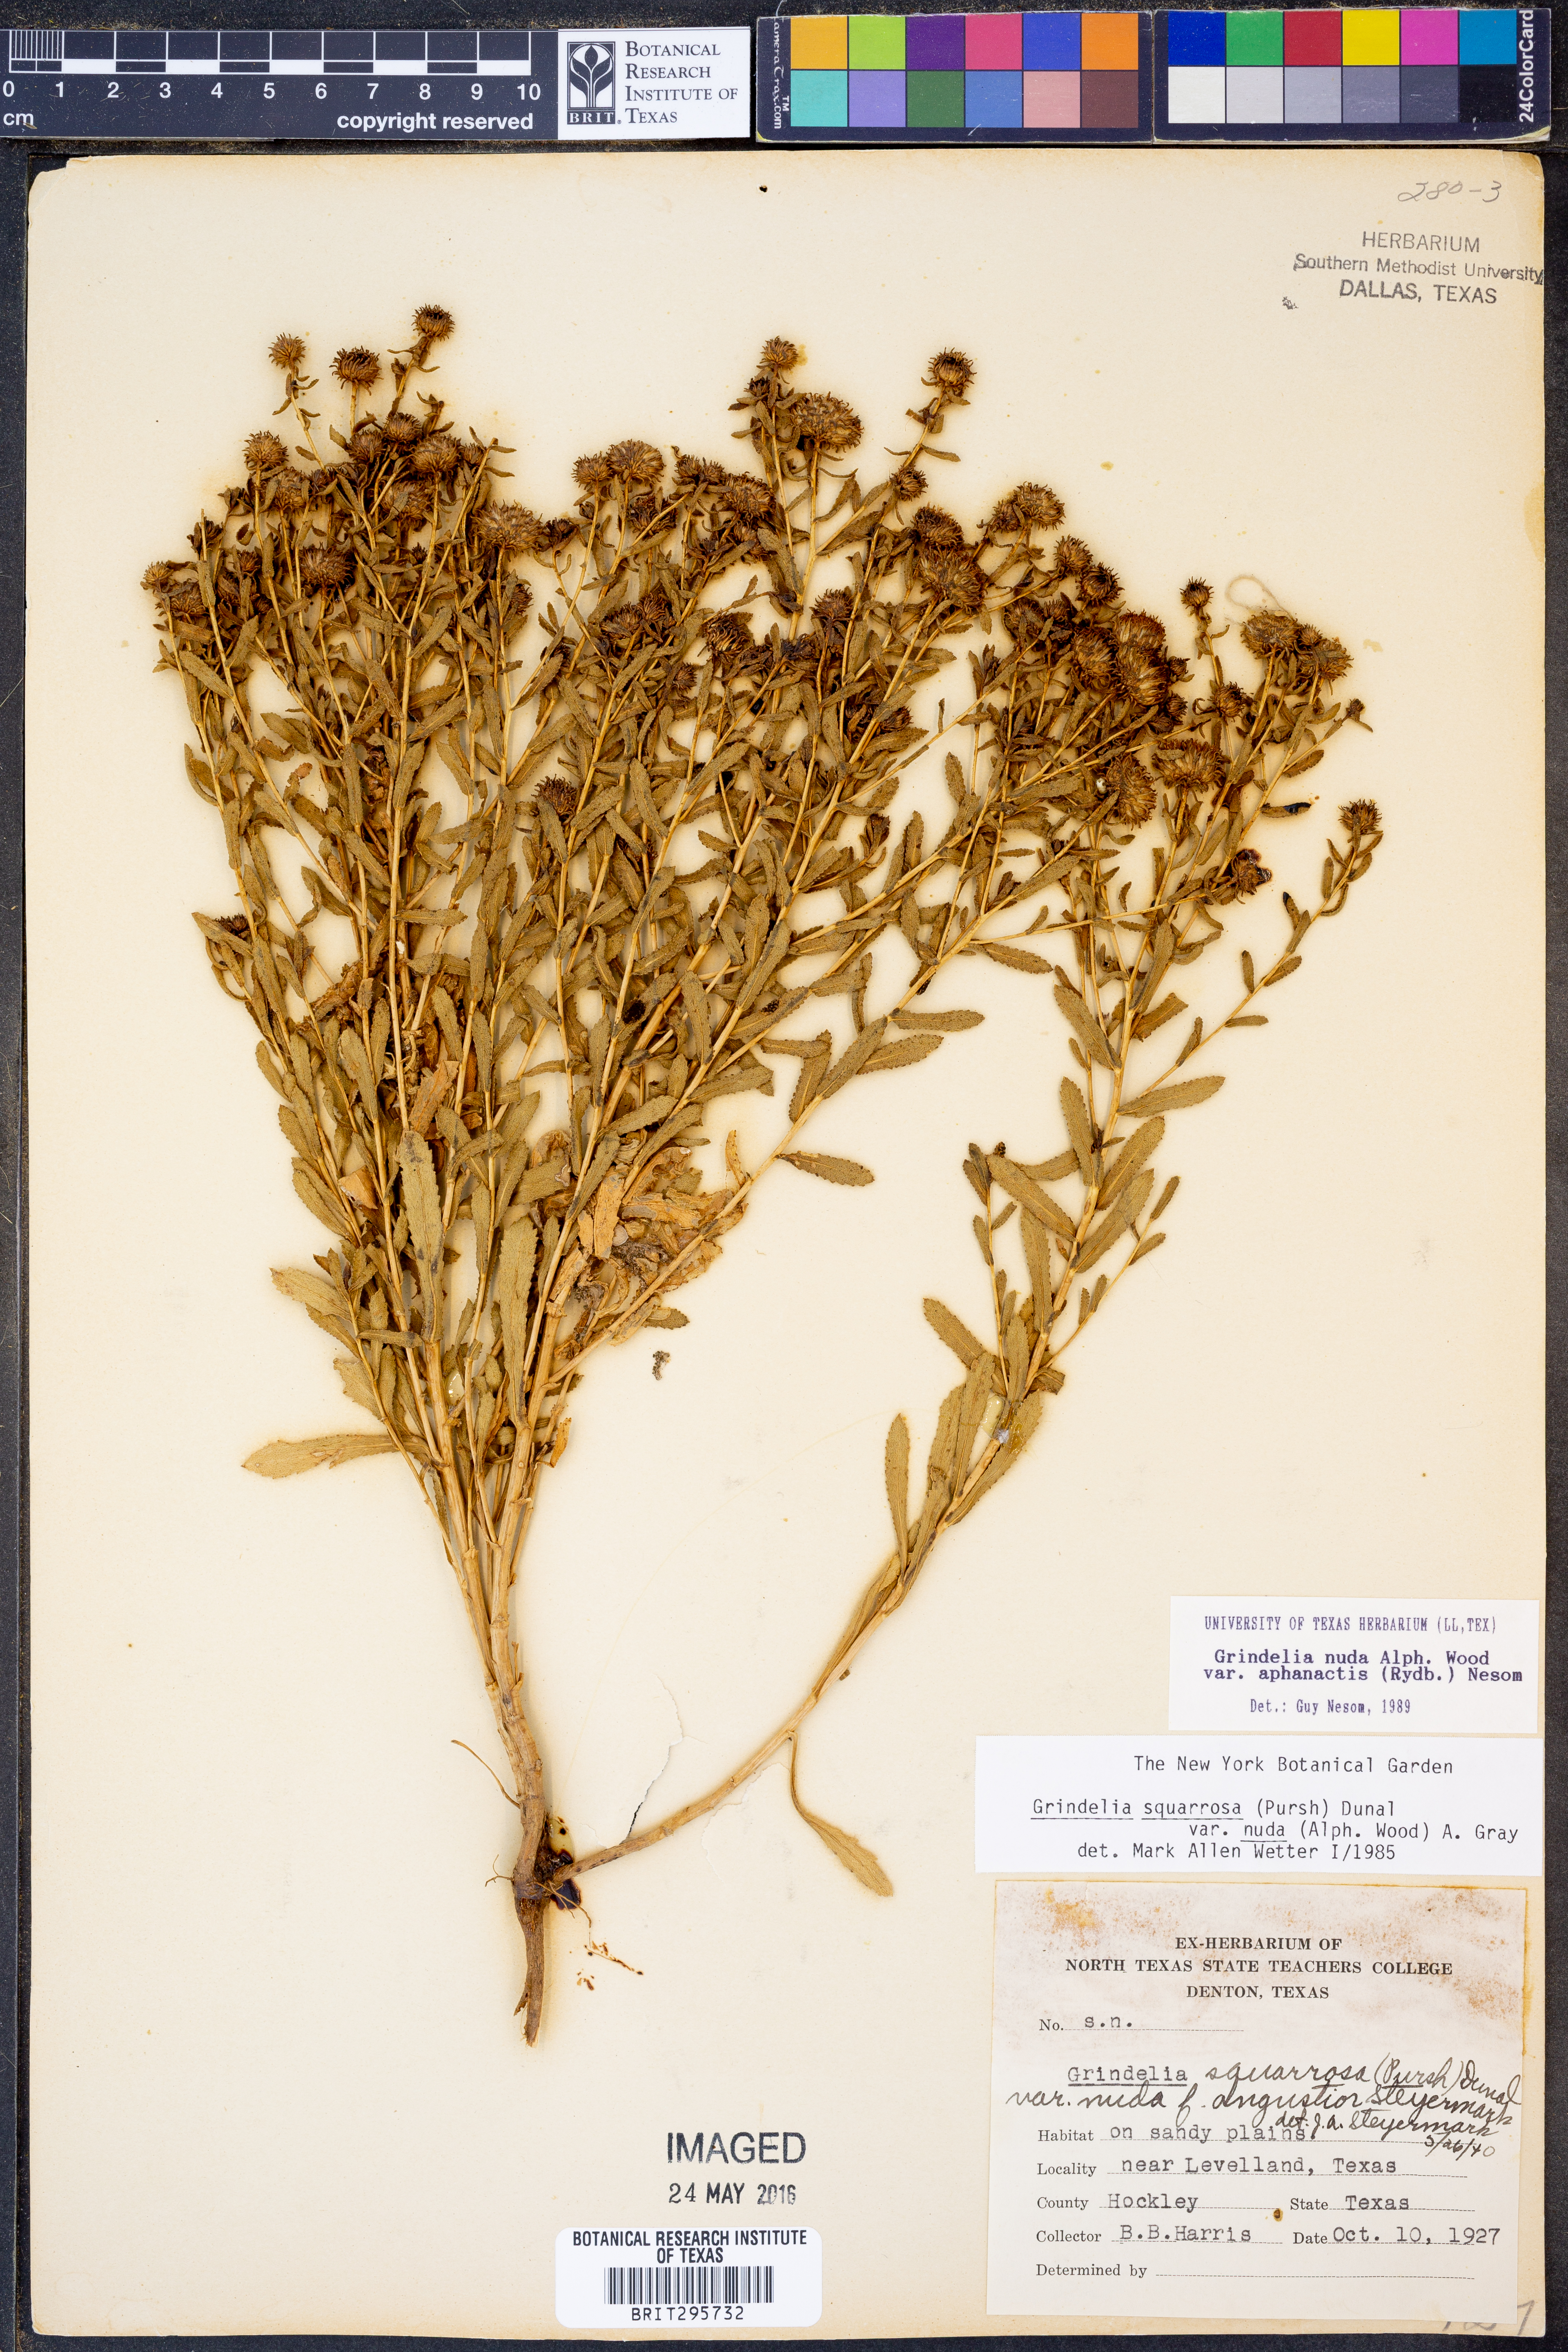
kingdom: Plantae
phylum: Tracheophyta
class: Magnoliopsida
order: Asterales
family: Asteraceae
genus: Grindelia
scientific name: Grindelia nuda
